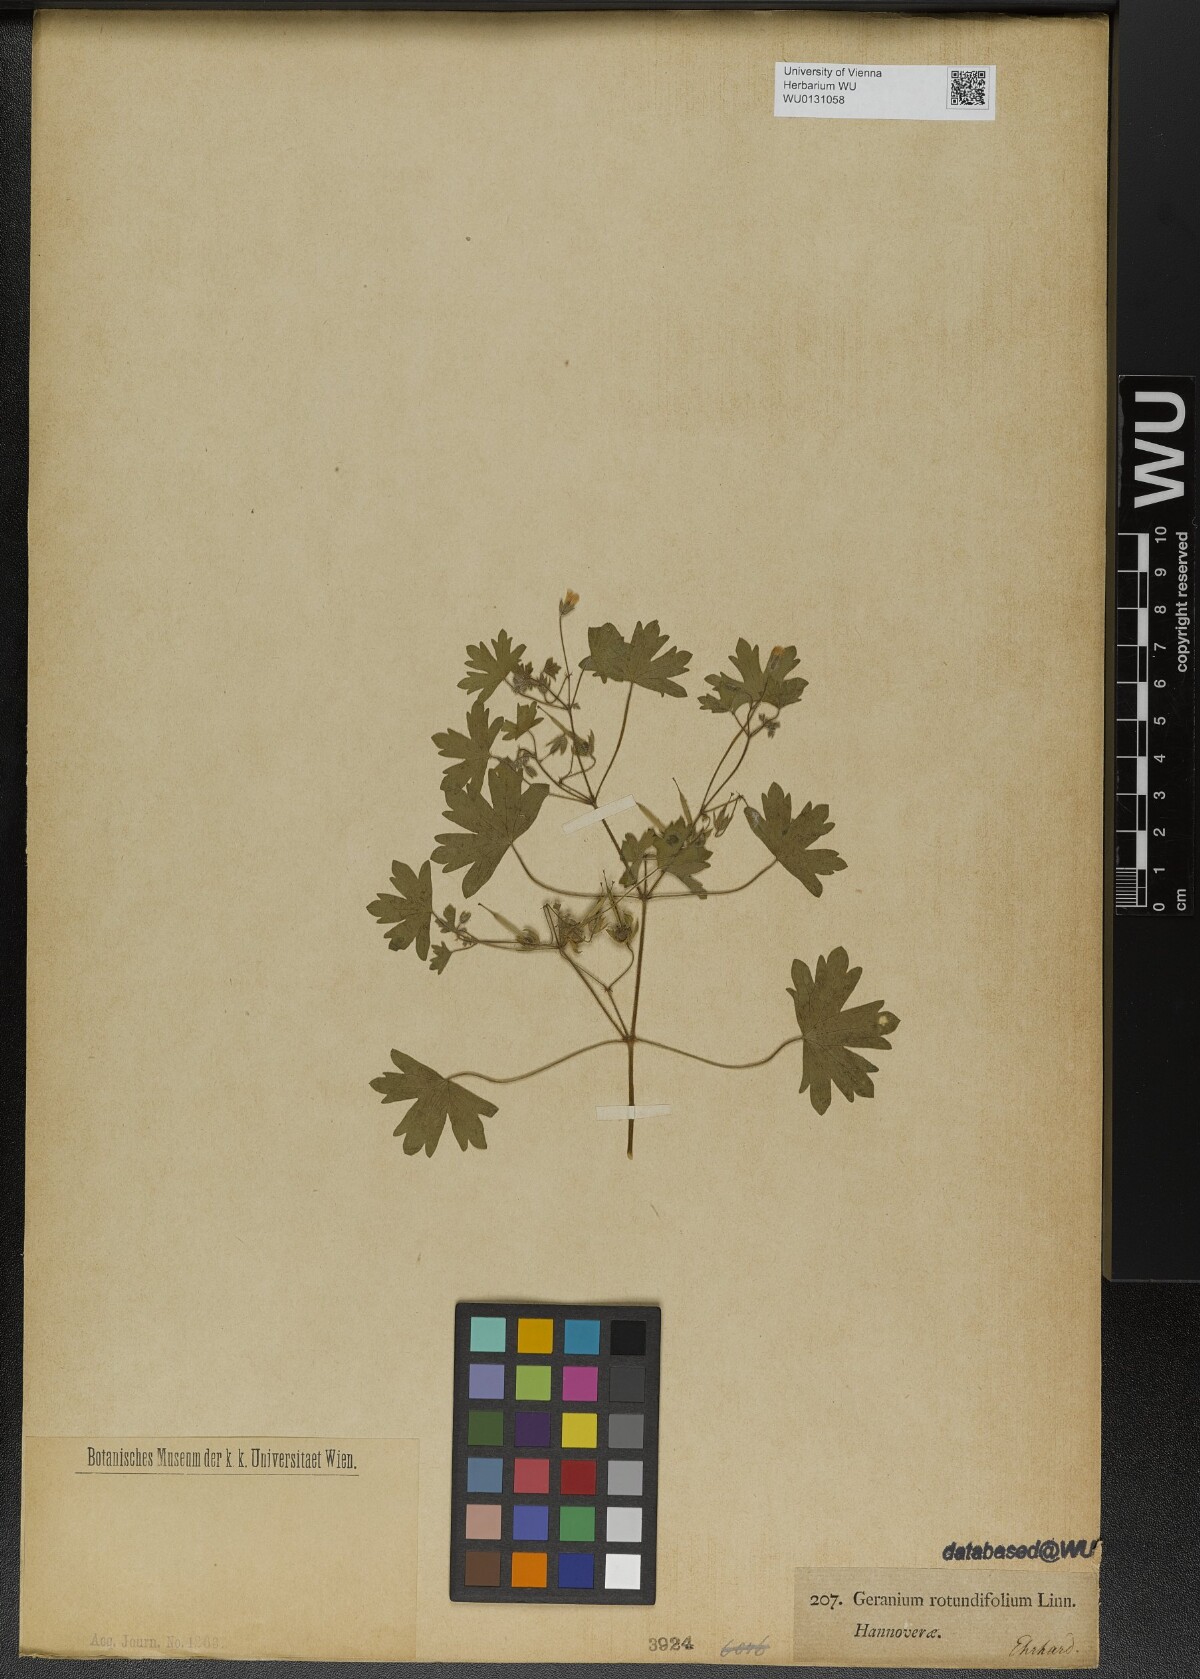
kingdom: Plantae
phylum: Tracheophyta
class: Magnoliopsida
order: Geraniales
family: Geraniaceae
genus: Geranium
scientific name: Geranium rotundifolium
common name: Round-leaved crane's-bill
